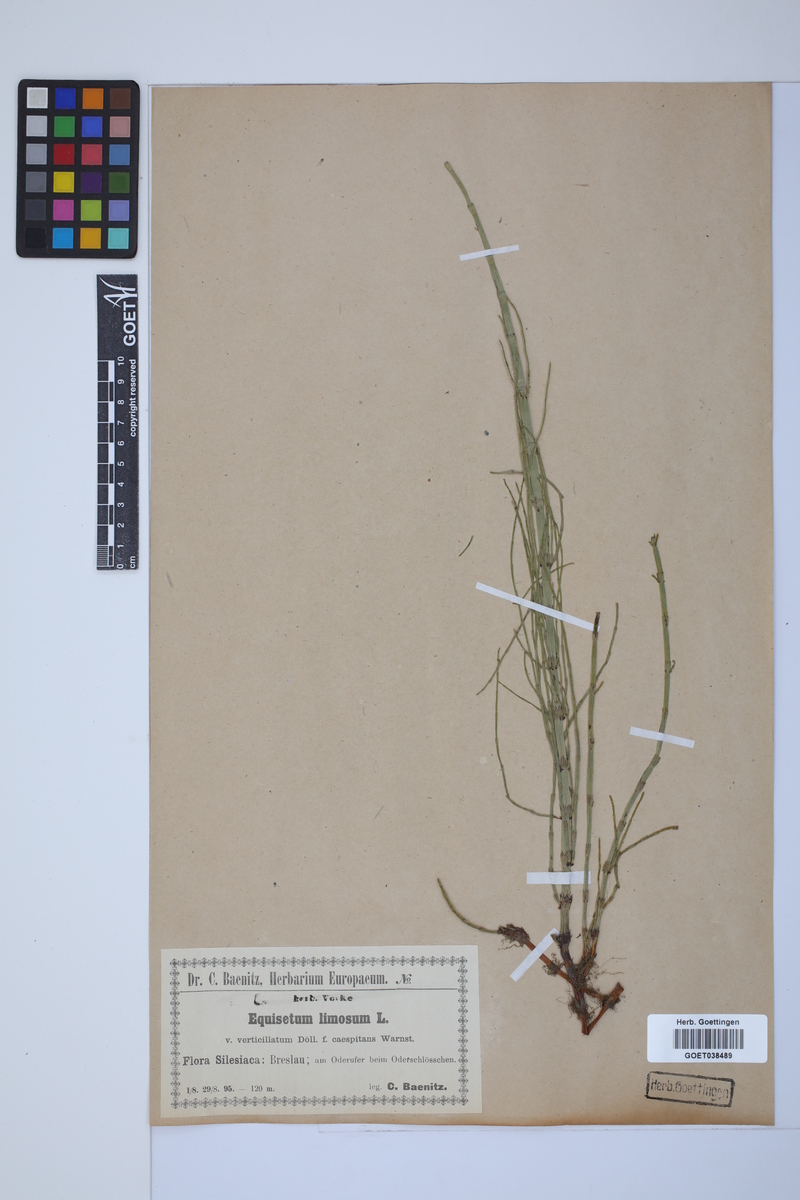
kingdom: Plantae
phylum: Tracheophyta
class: Polypodiopsida
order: Equisetales
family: Equisetaceae
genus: Equisetum
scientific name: Equisetum fluviatile
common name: Water horsetail
